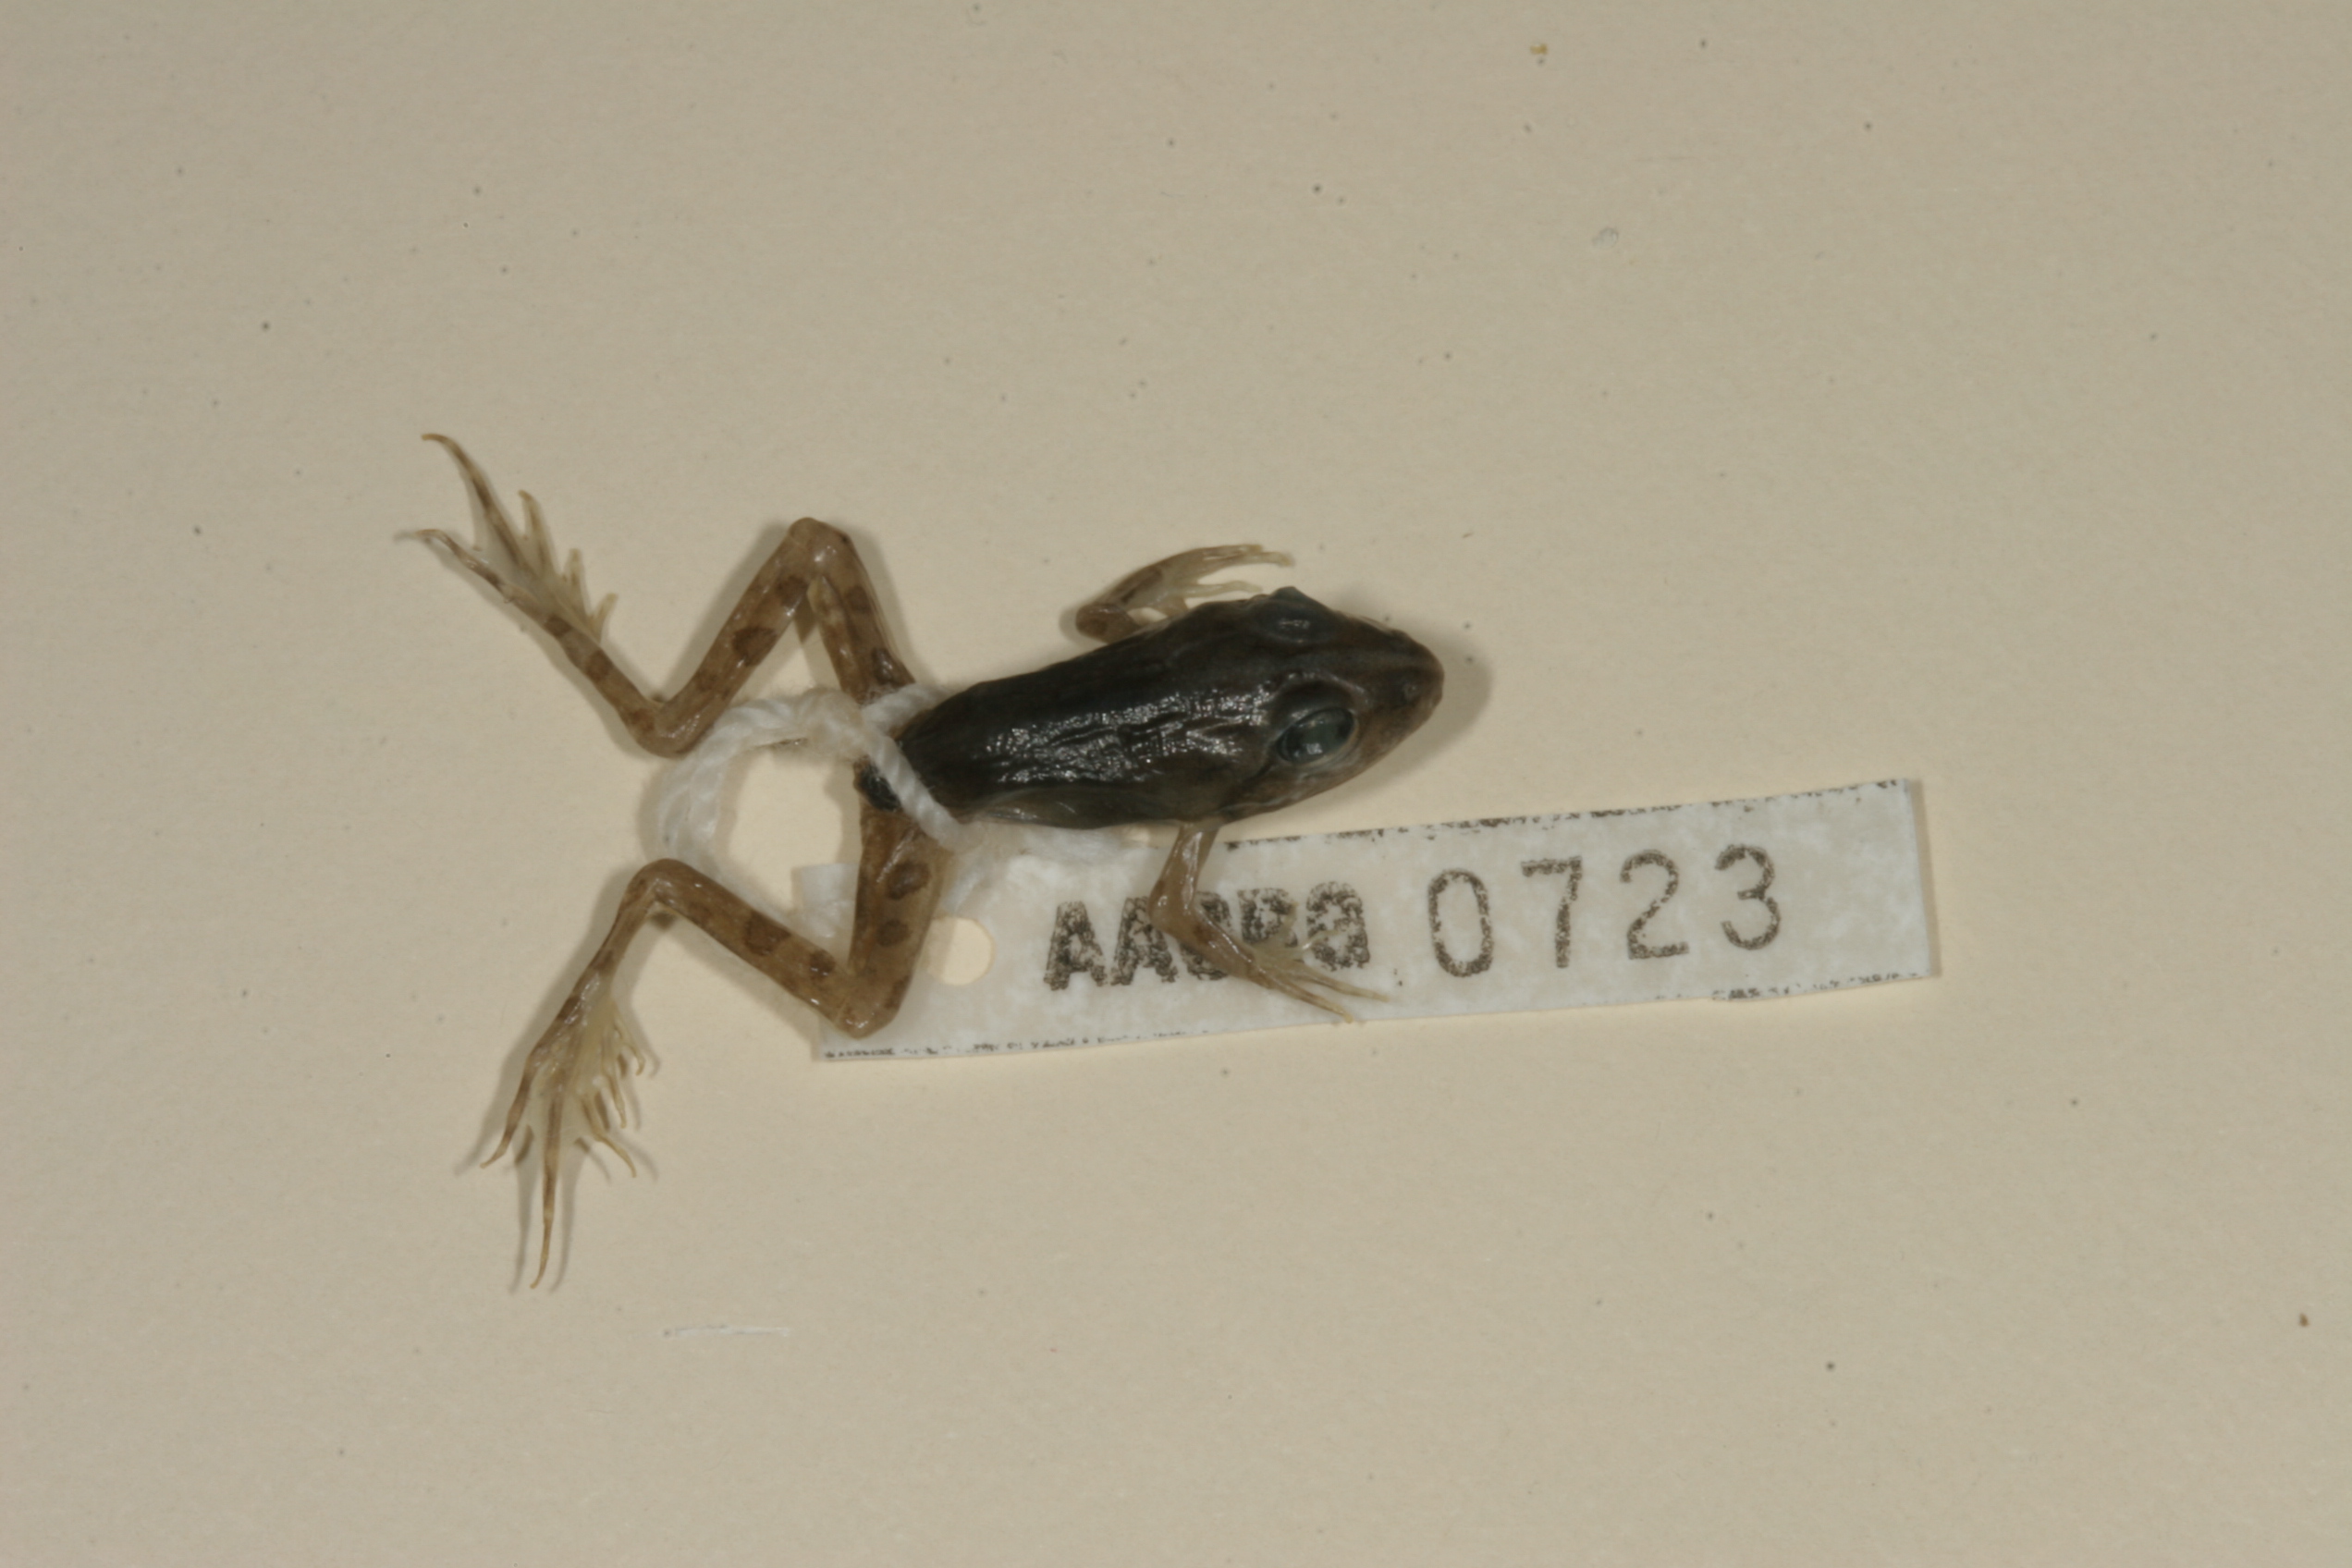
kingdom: Animalia
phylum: Chordata
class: Amphibia
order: Anura
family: Pyxicephalidae
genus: Amietia
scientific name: Amietia angolensis
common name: Dusky-throated frog
